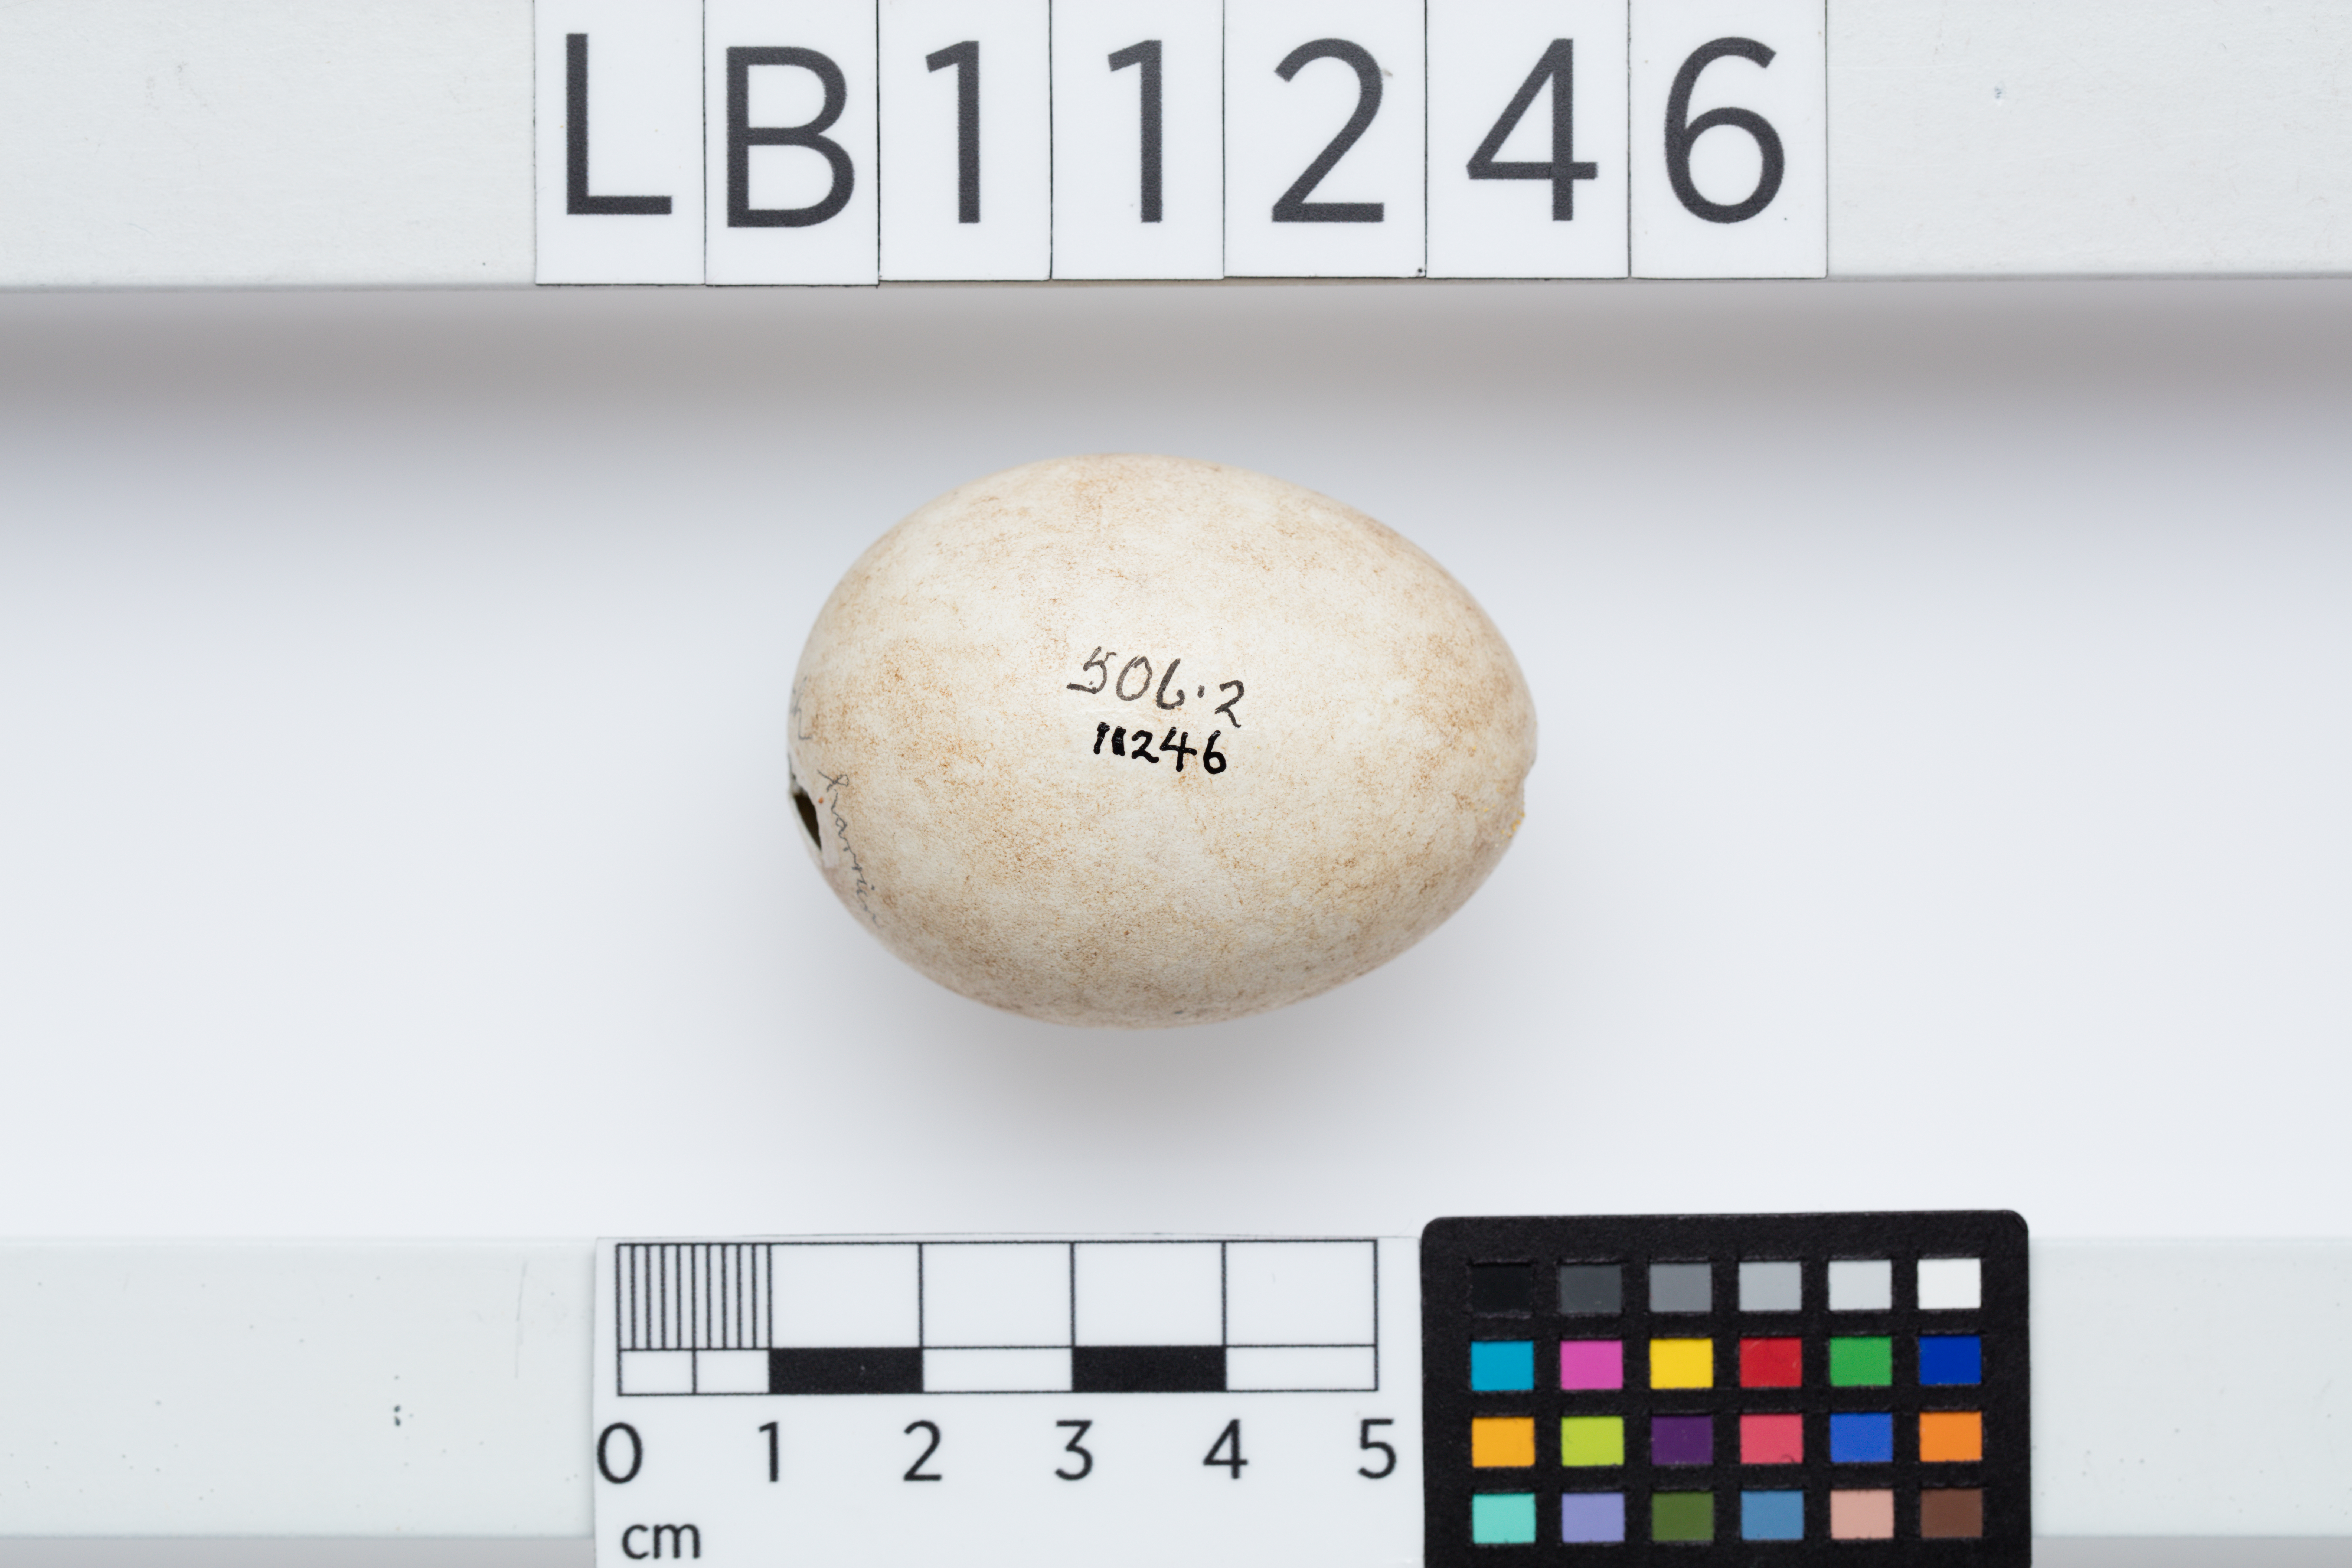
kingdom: Animalia
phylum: Chordata
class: Aves
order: Accipitriformes
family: Accipitridae
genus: Circus
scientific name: Circus aeruginosus
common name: Western marsh harrier
